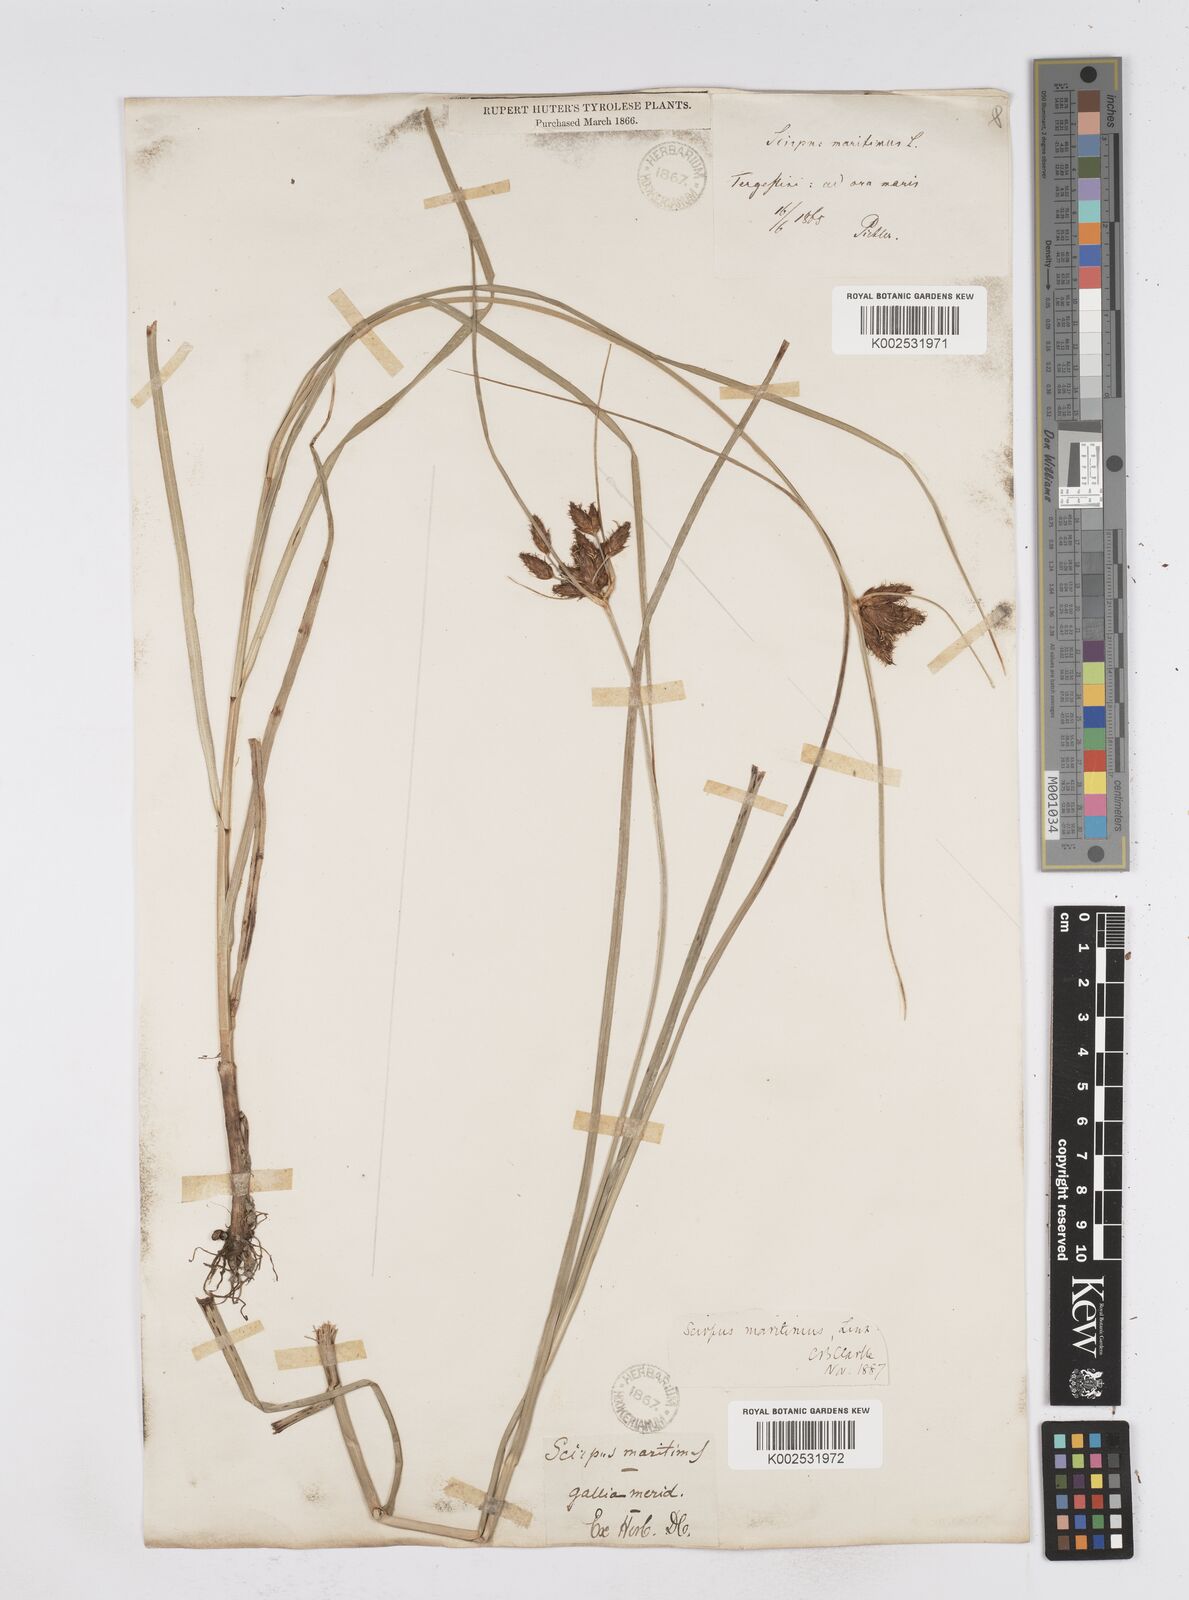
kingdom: Plantae
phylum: Tracheophyta
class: Liliopsida
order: Poales
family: Cyperaceae
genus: Bolboschoenus
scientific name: Bolboschoenus maritimus
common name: Sea club-rush
